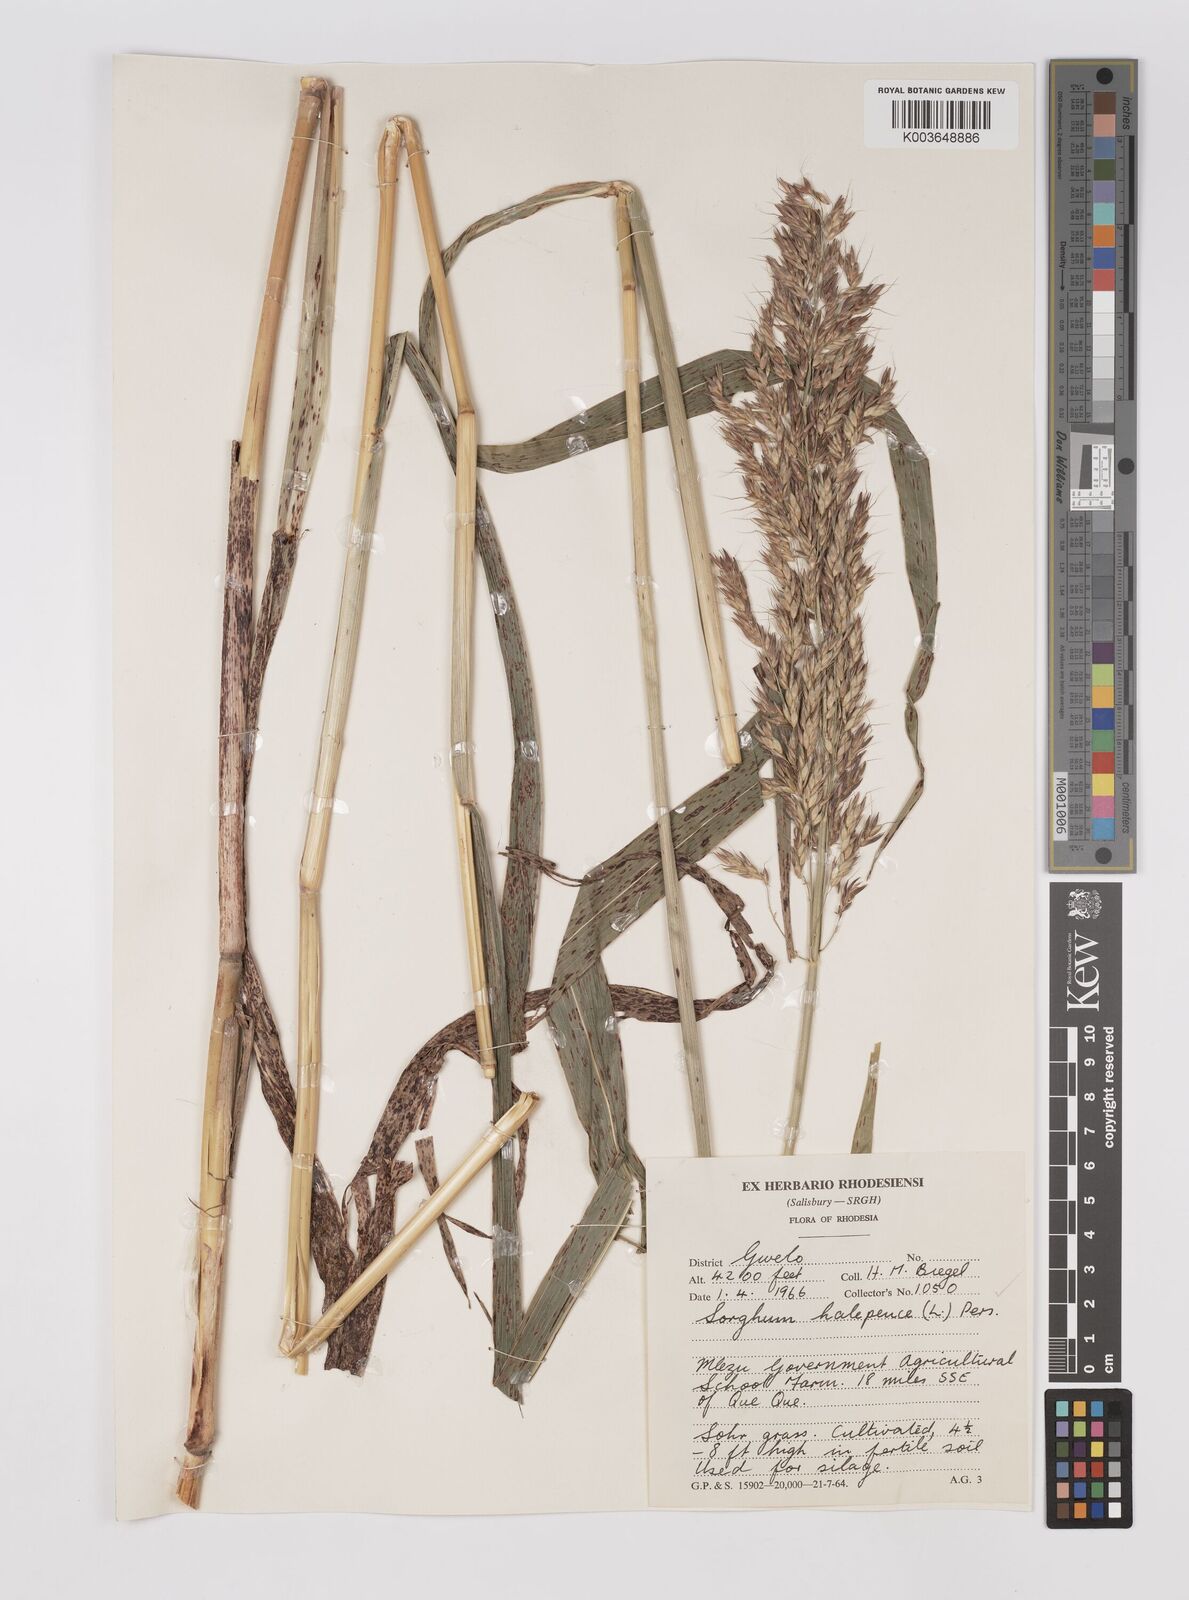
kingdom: Plantae
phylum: Tracheophyta
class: Liliopsida
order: Poales
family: Poaceae
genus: Sorghum
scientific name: Sorghum drummondii
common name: Sudangrass
